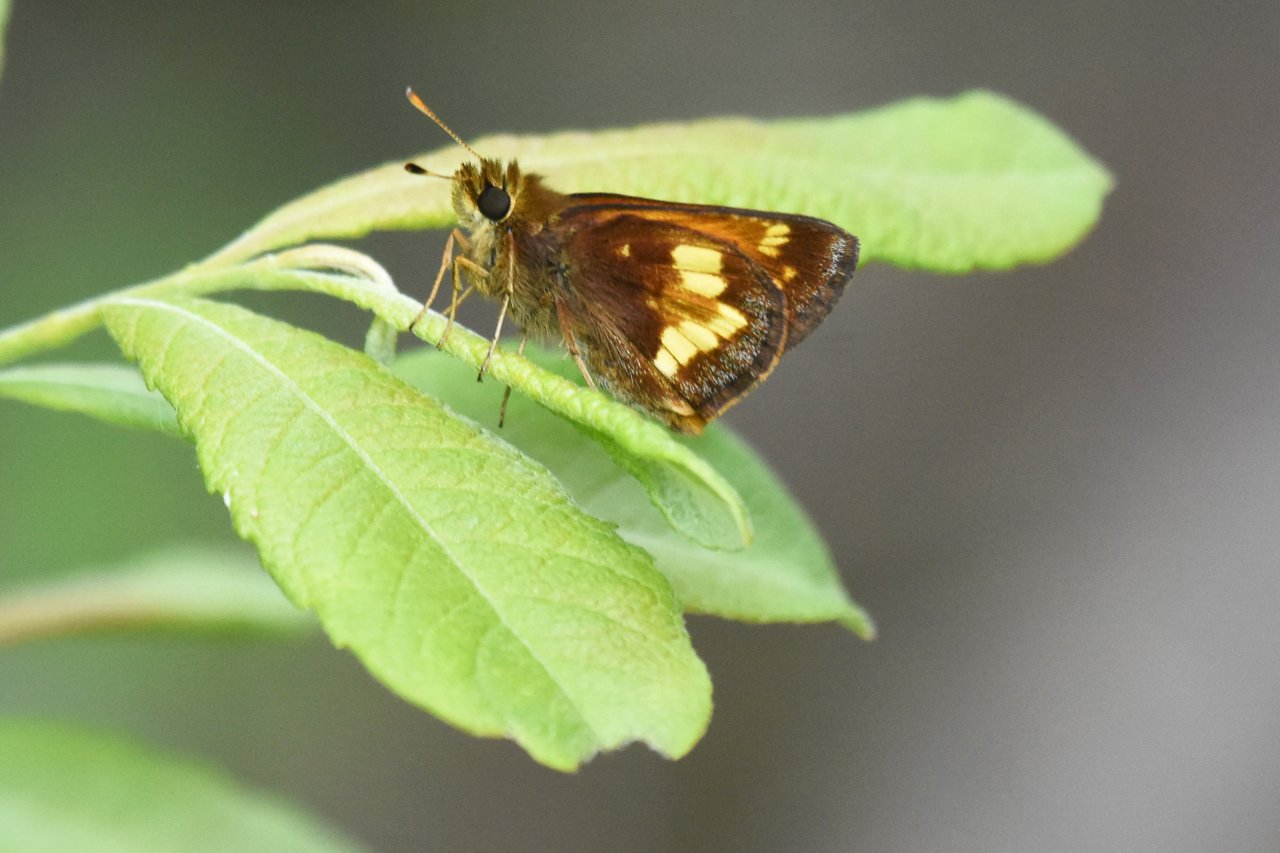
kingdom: Animalia
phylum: Arthropoda
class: Insecta
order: Lepidoptera
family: Hesperiidae
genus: Lon
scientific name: Lon hobomok
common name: Hobomok Skipper
